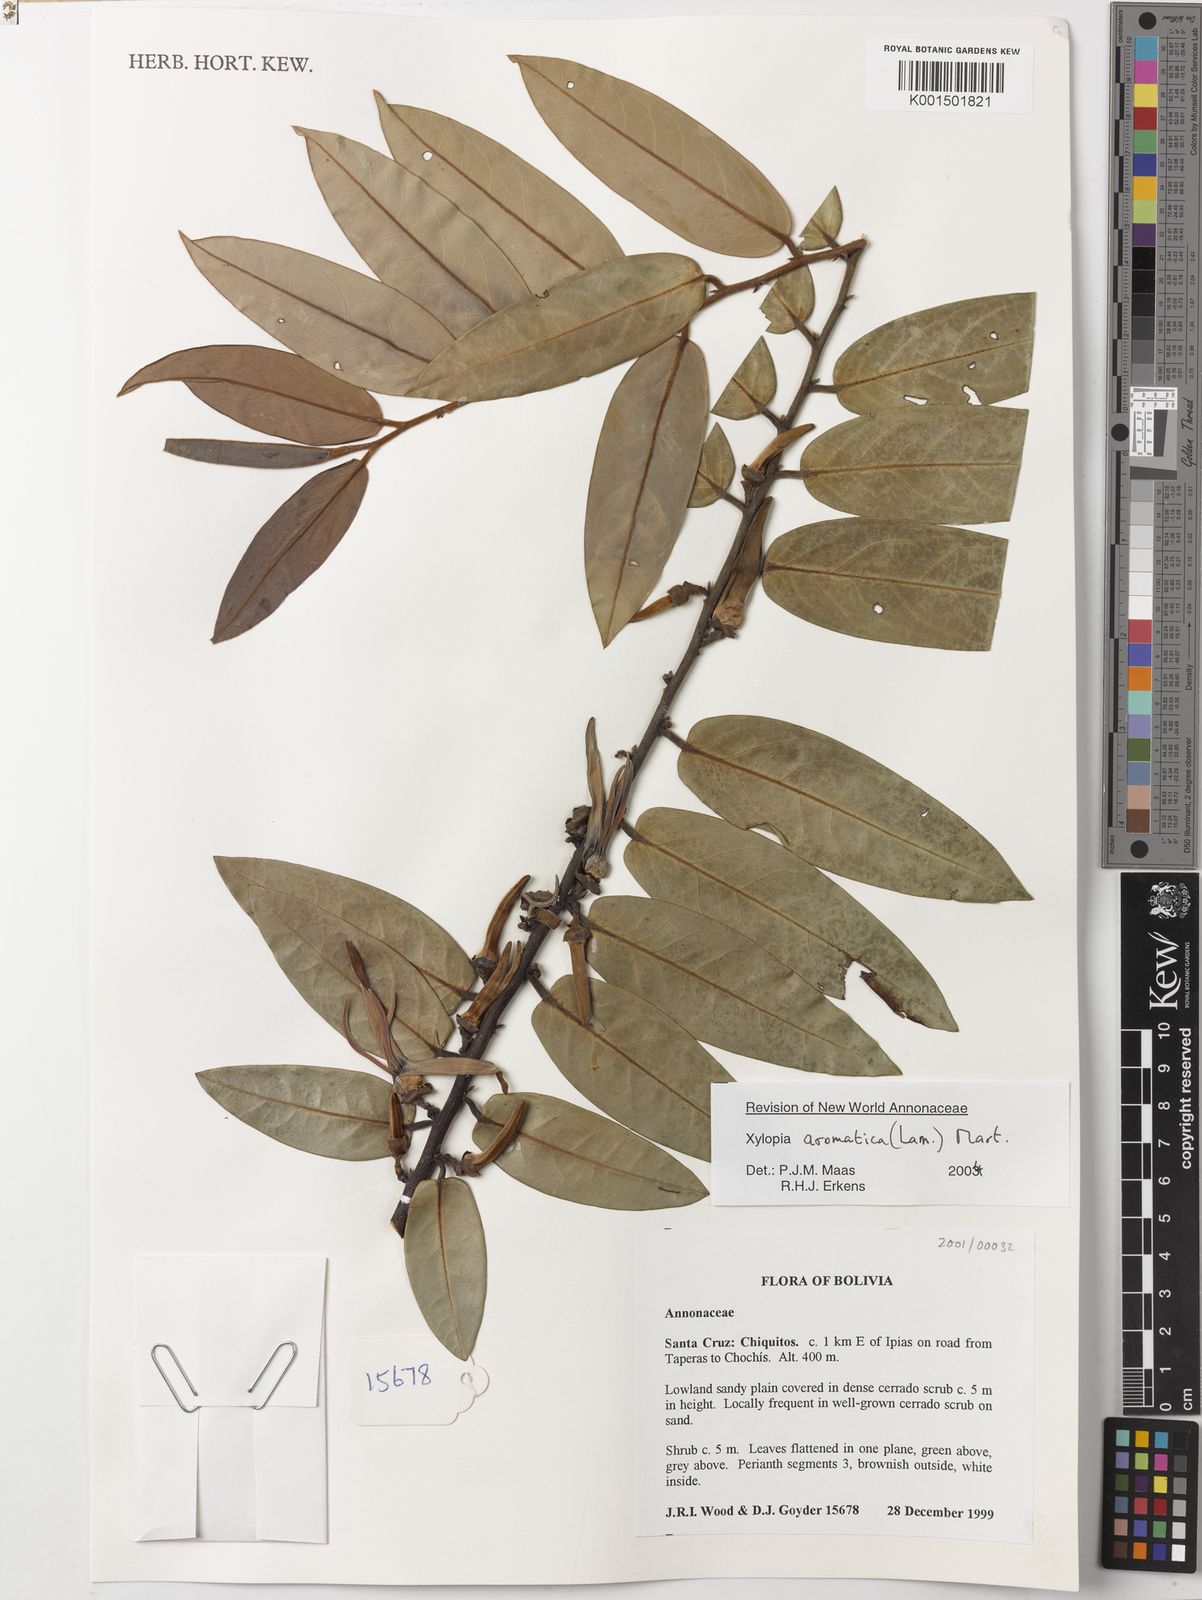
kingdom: Plantae
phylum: Tracheophyta
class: Magnoliopsida
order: Magnoliales
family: Annonaceae
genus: Xylopia
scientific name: Xylopia aromatica
